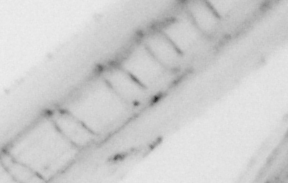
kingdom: Animalia
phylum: Chordata
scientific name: Chordata
